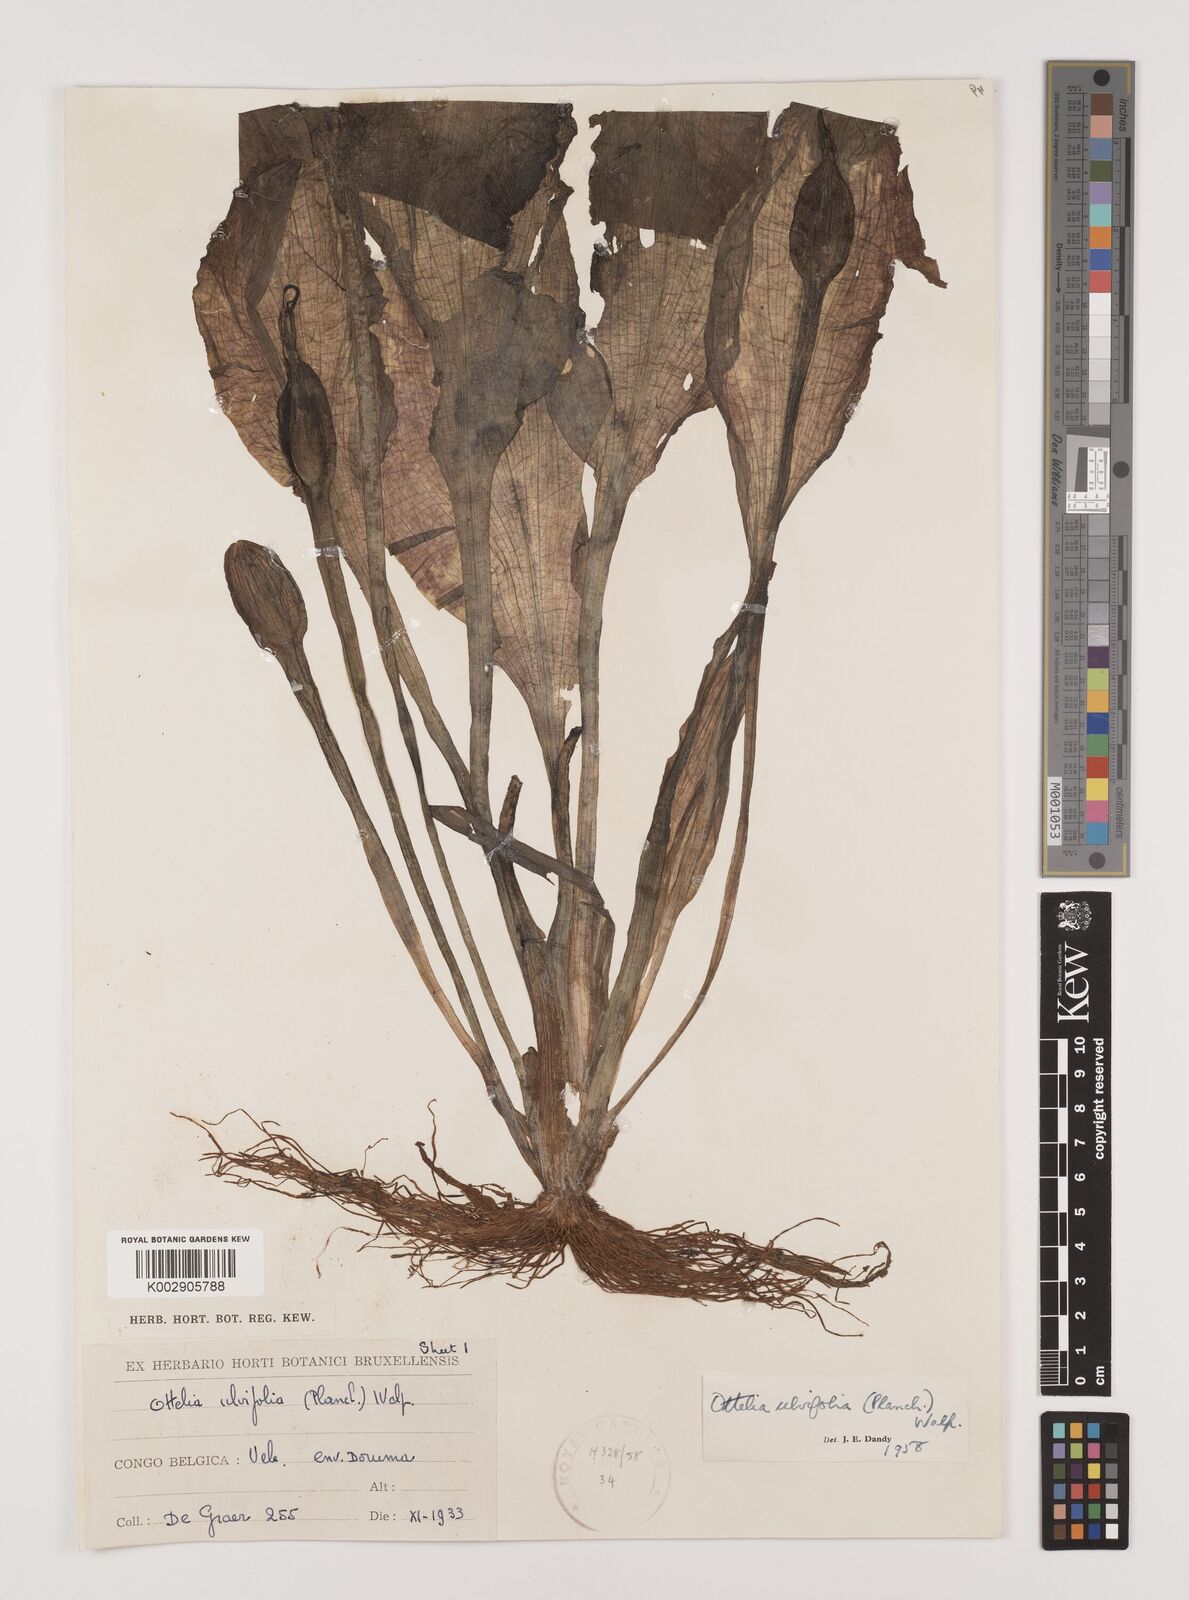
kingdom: Plantae
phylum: Tracheophyta
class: Liliopsida
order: Alismatales
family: Hydrocharitaceae
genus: Ottelia
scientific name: Ottelia ulvifolia
